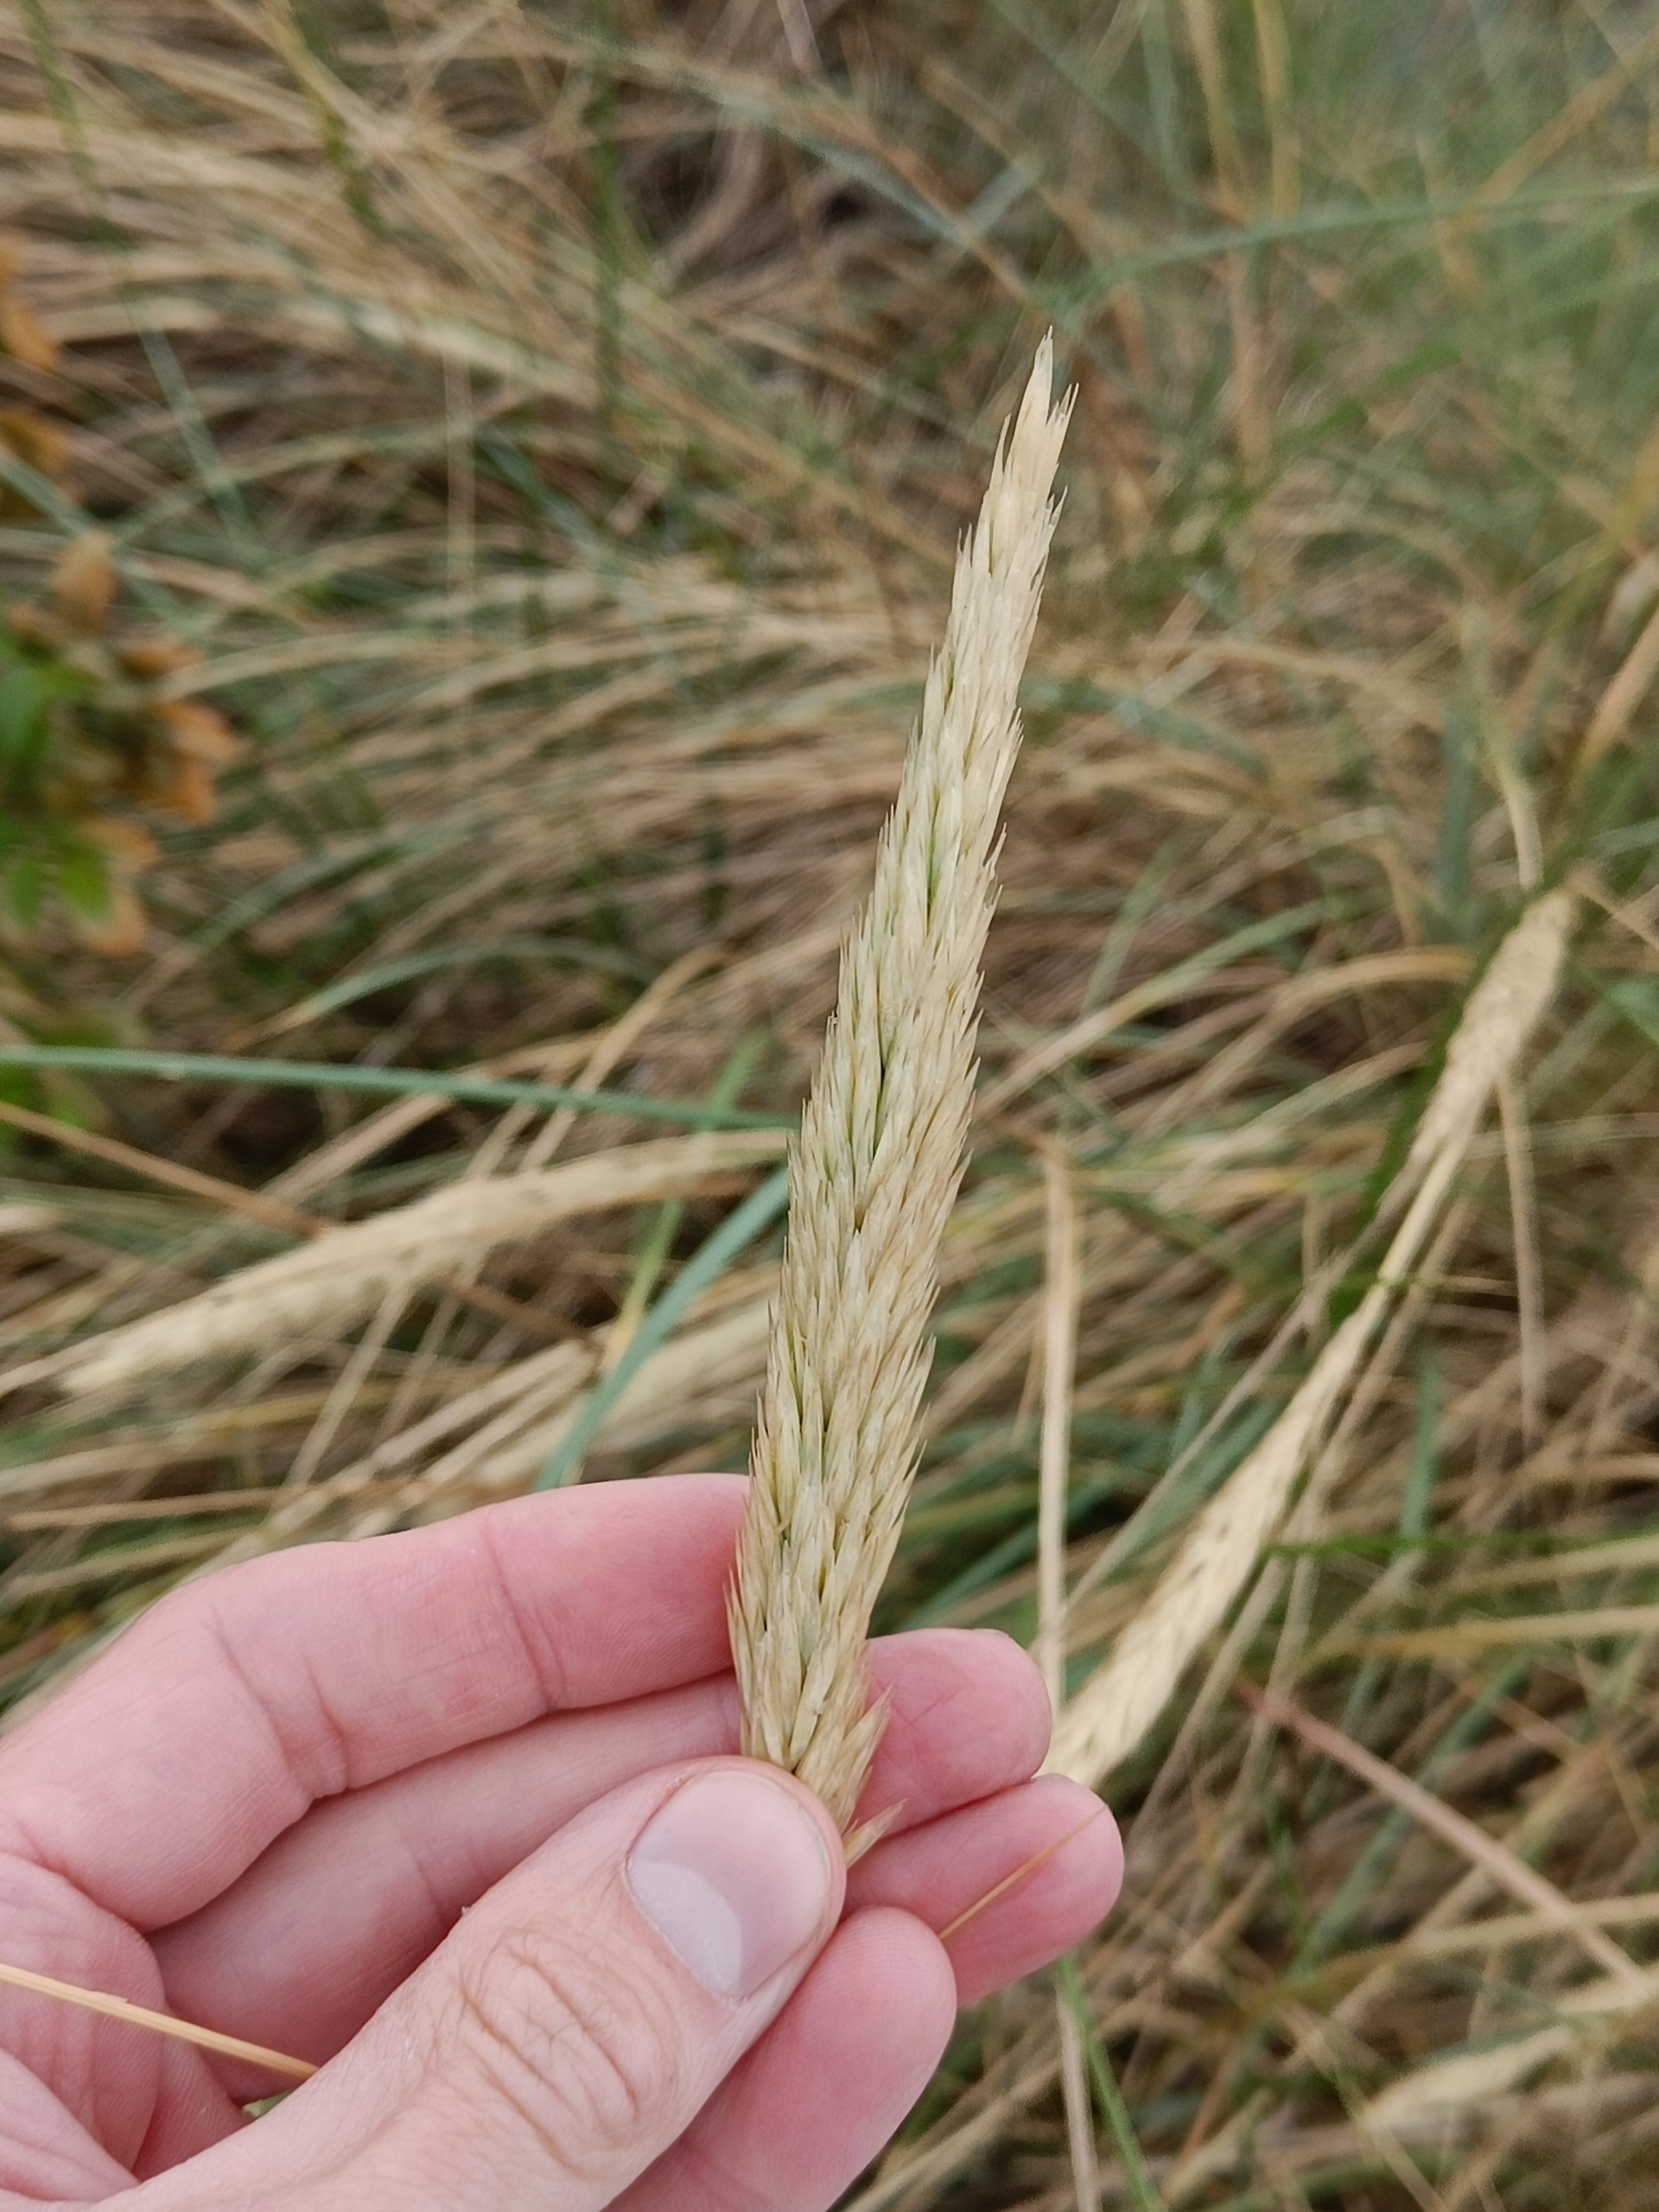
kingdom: Plantae
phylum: Tracheophyta
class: Liliopsida
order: Poales
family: Poaceae
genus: Calamagrostis
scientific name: Calamagrostis arenaria
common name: Sand-hjælme
